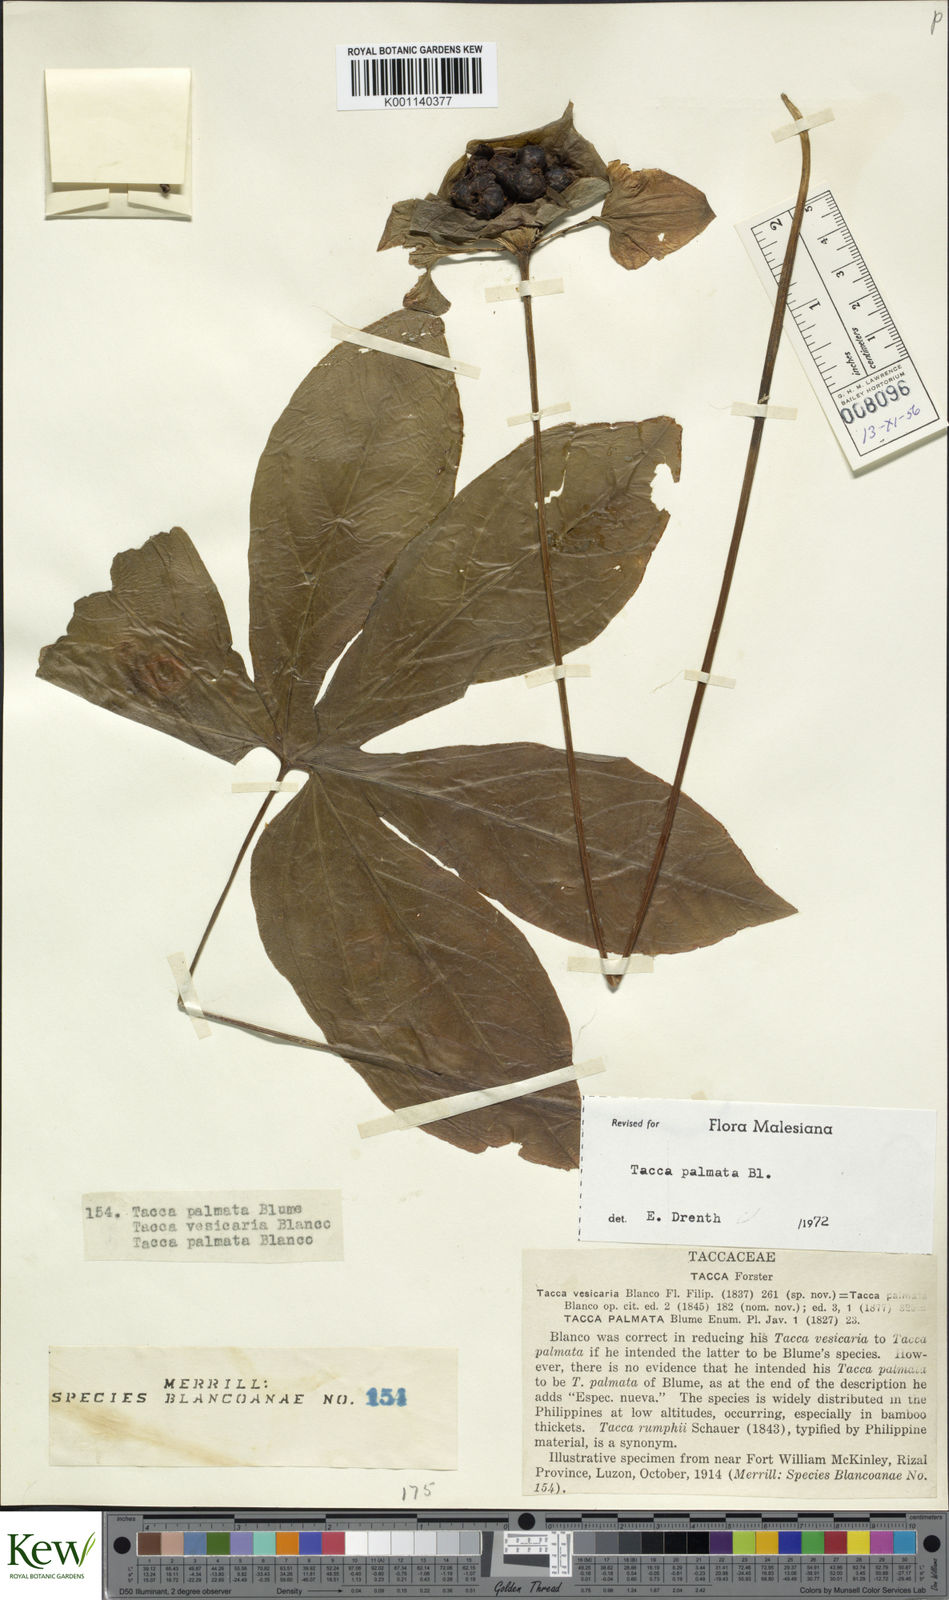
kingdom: Plantae
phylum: Tracheophyta
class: Liliopsida
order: Dioscoreales
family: Dioscoreaceae
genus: Tacca
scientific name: Tacca palmata
